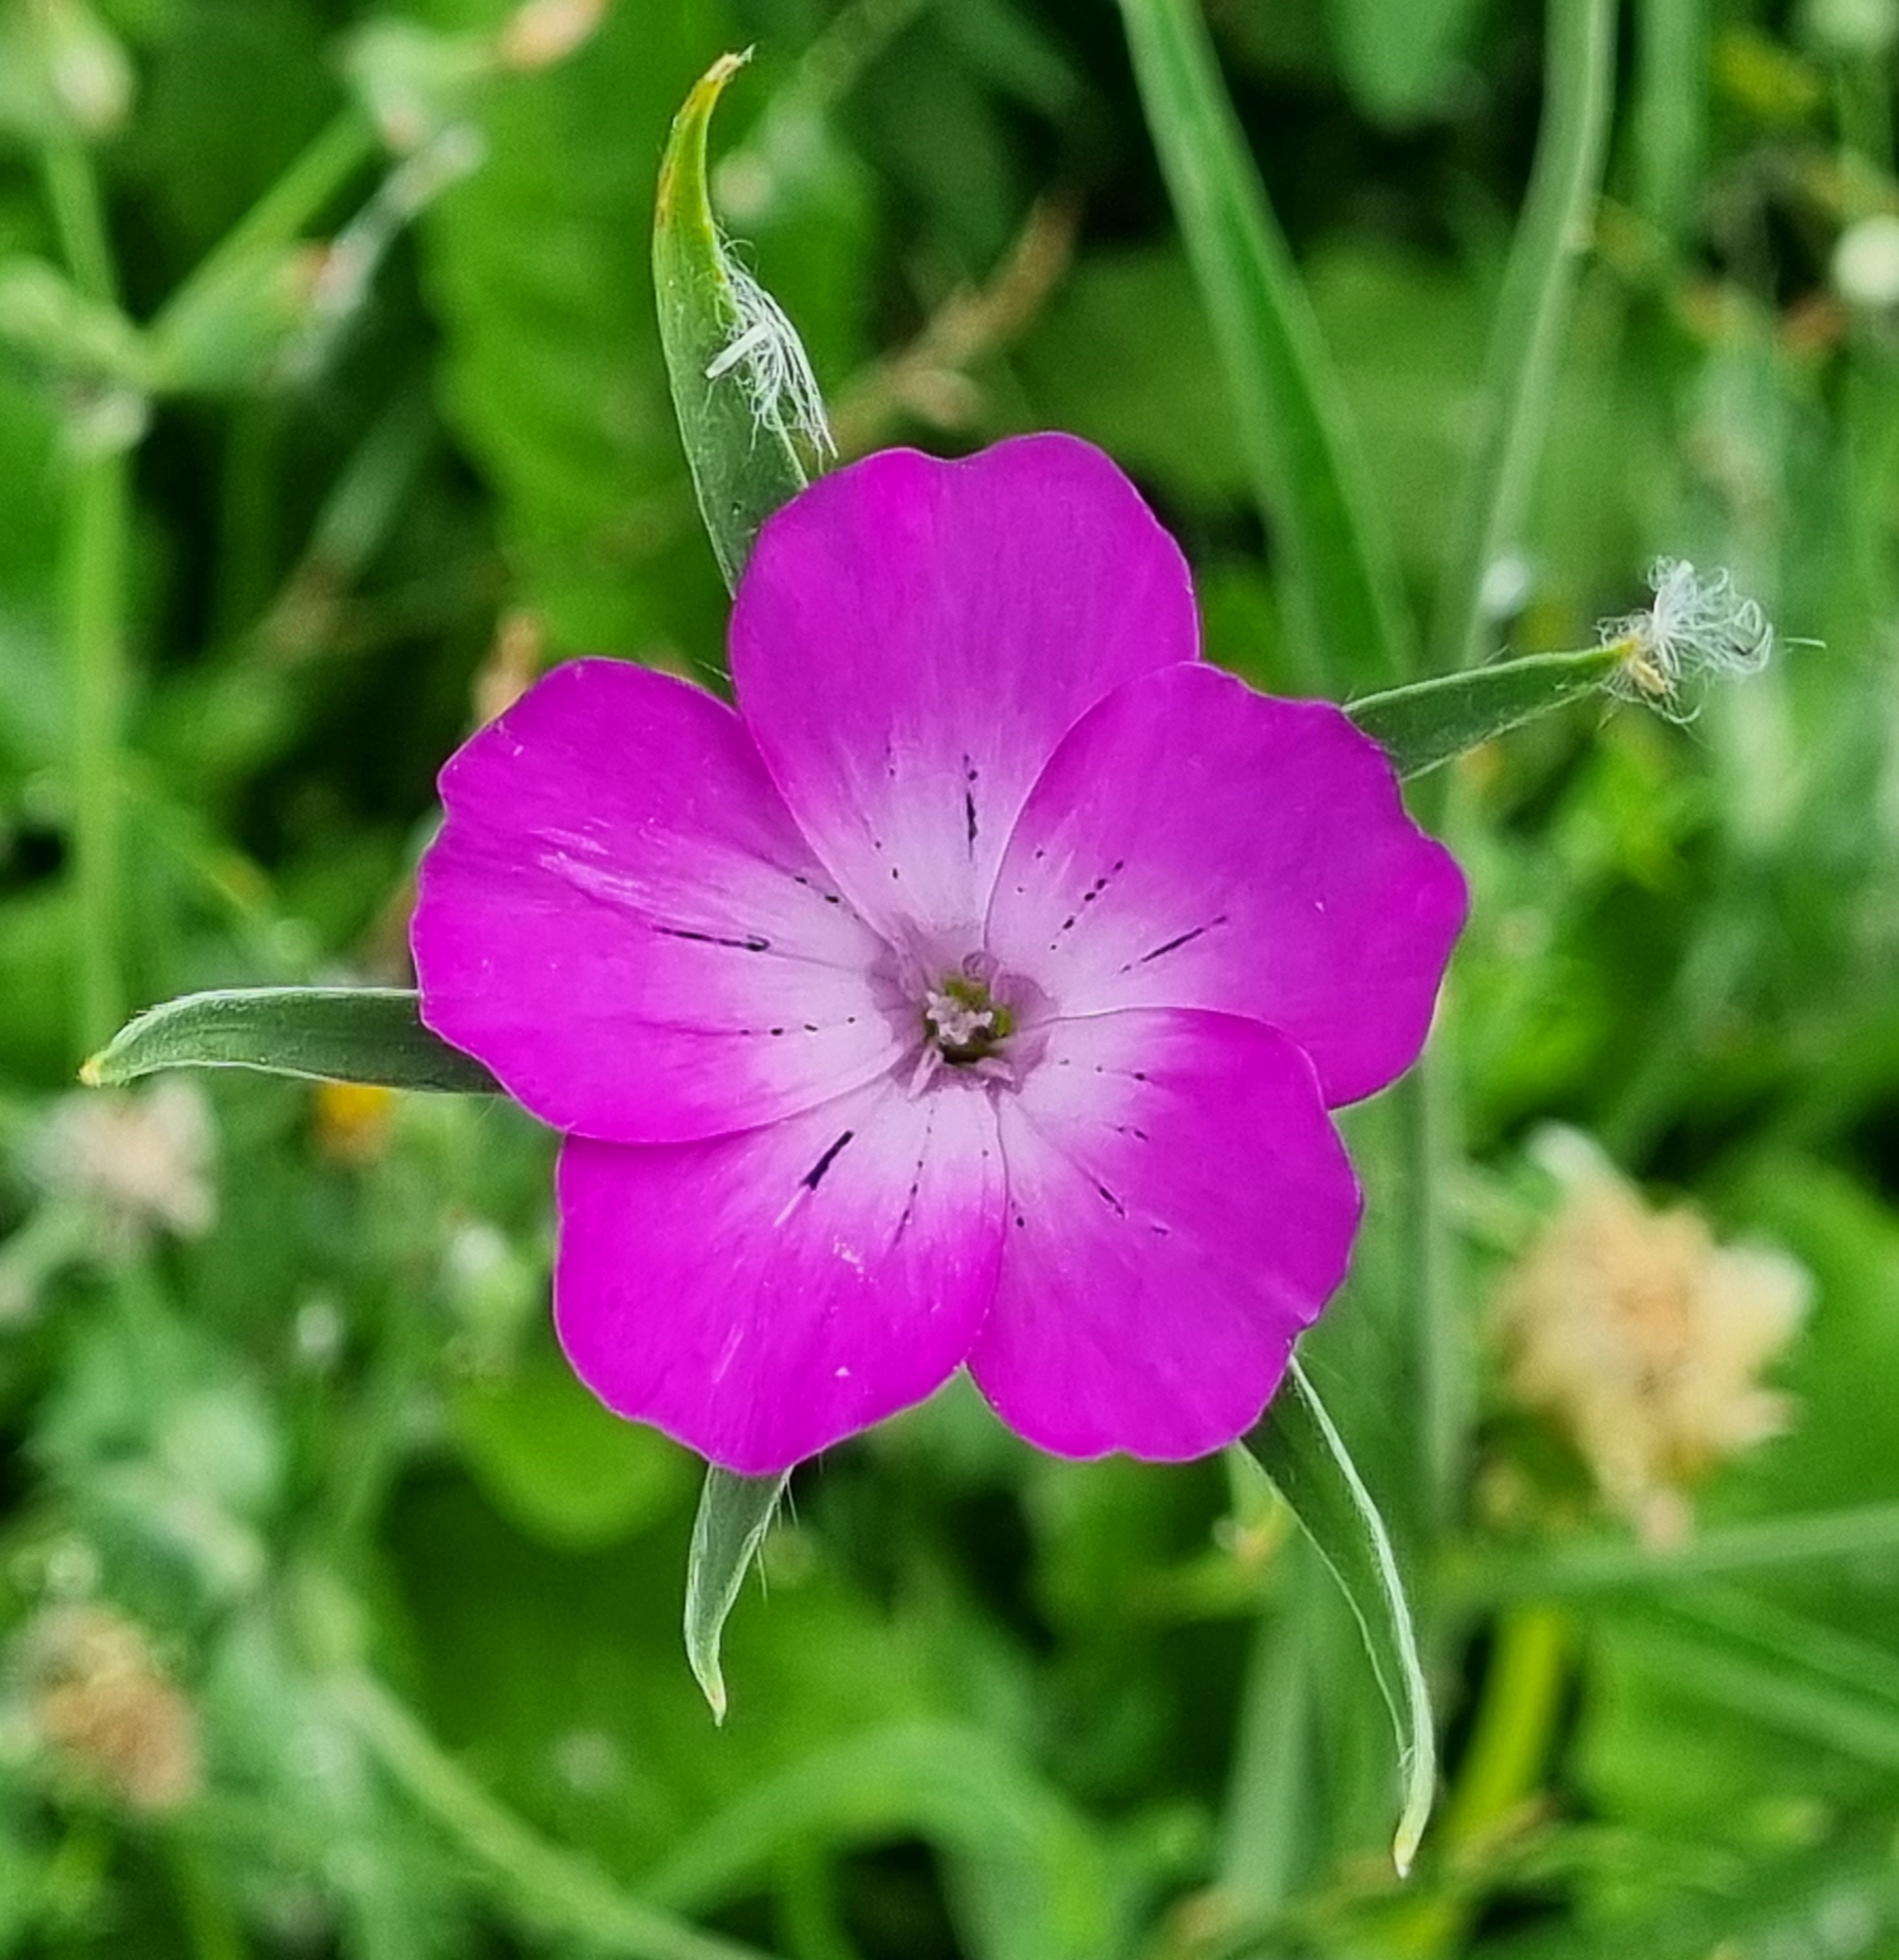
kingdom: Plantae
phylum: Tracheophyta
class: Magnoliopsida
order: Caryophyllales
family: Caryophyllaceae
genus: Agrostemma
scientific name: Agrostemma githago
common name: Klinte
